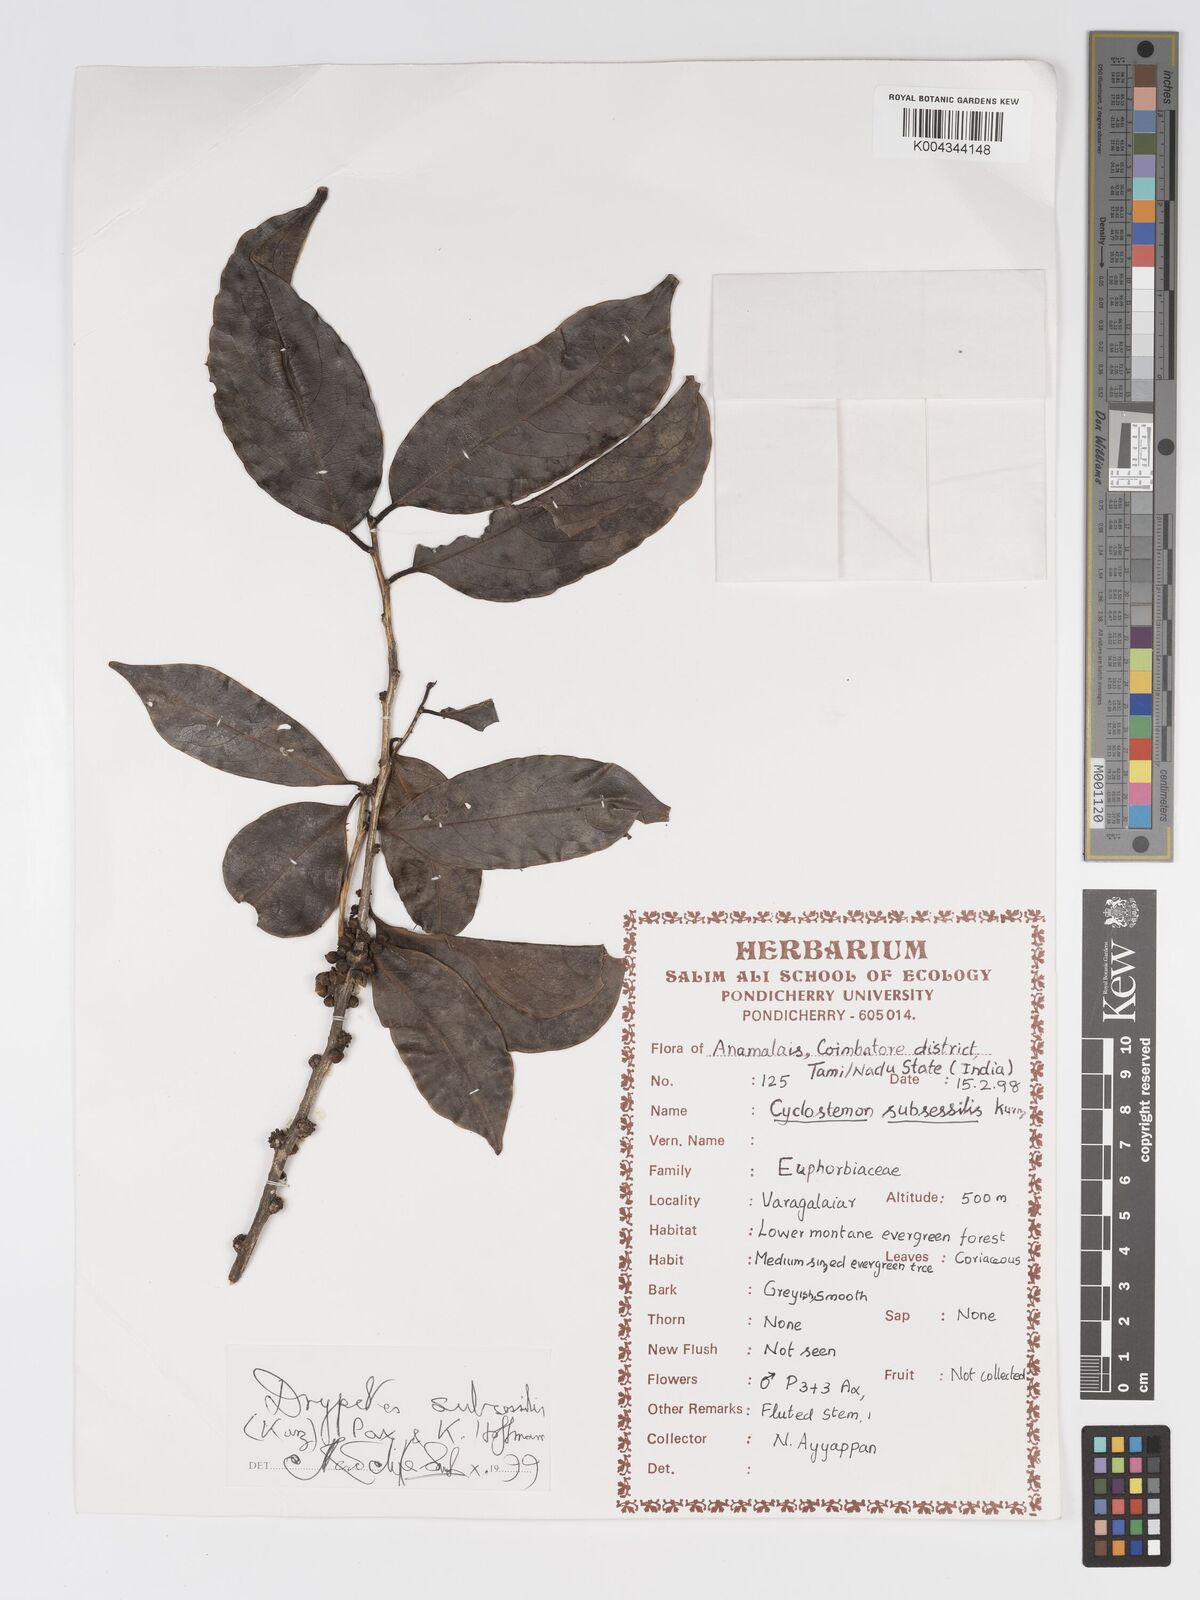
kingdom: Plantae
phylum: Tracheophyta
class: Magnoliopsida
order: Malpighiales
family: Putranjivaceae
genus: Drypetes
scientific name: Drypetes subsessilis
